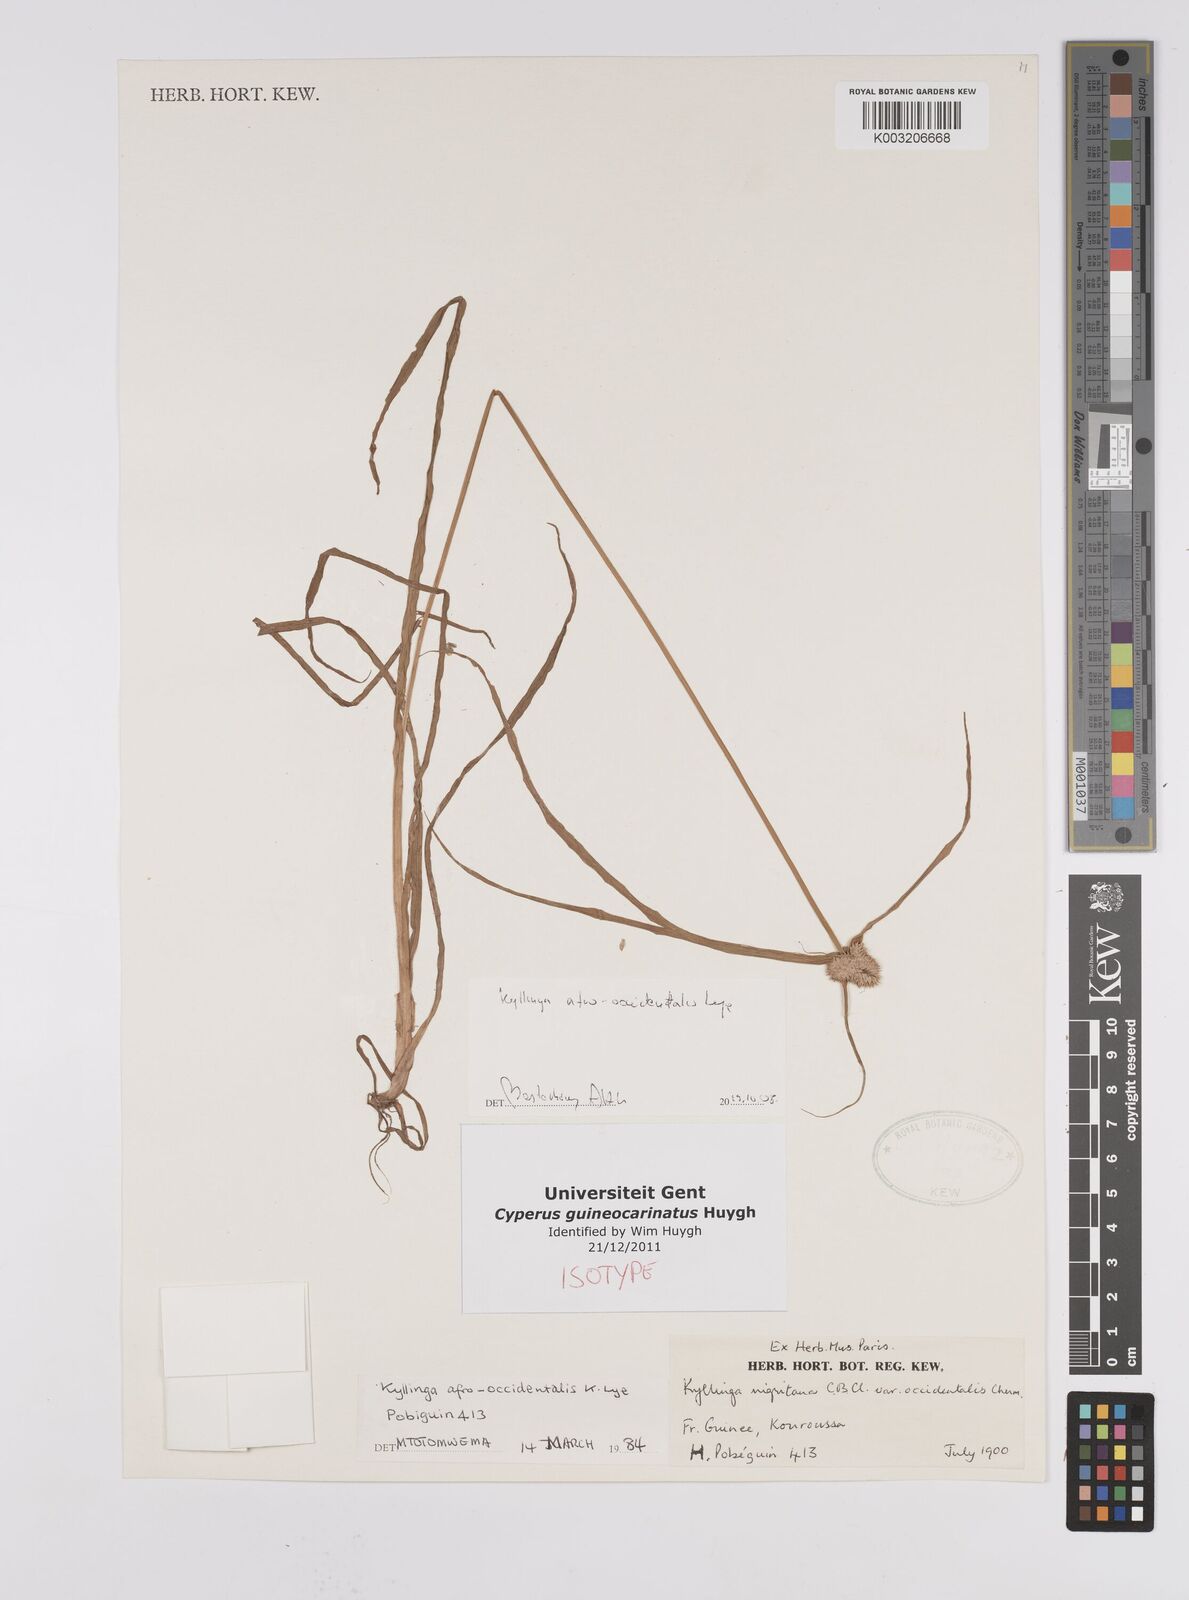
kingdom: Plantae
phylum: Tracheophyta
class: Liliopsida
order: Poales
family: Cyperaceae
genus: Cyperus
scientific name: Cyperus afro-occidentalis
